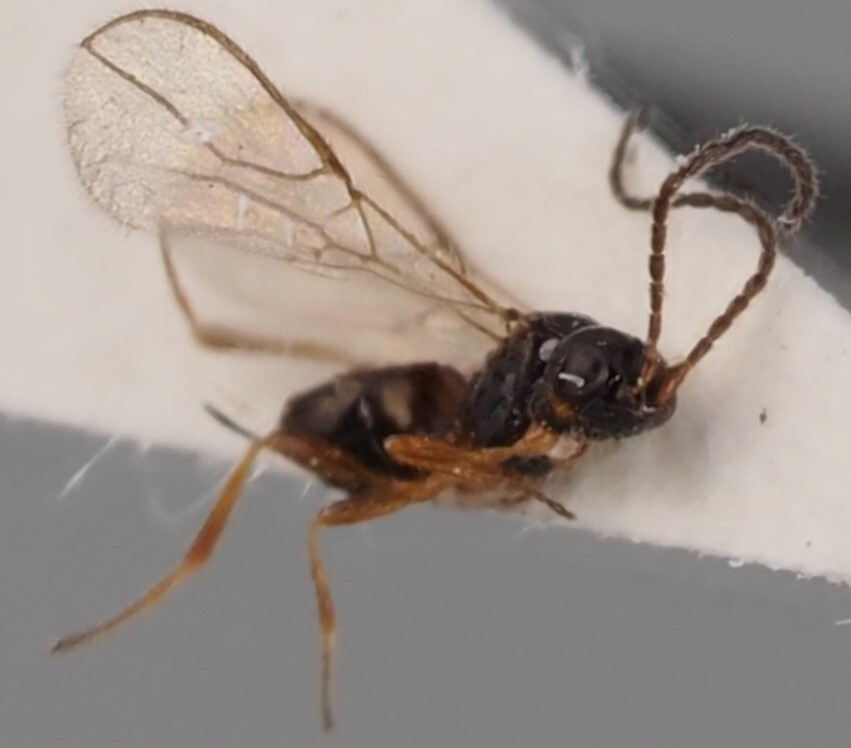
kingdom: Animalia
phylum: Arthropoda
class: Insecta
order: Hymenoptera
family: Braconidae
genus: Synaldis
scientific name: Synaldis mandibulata
